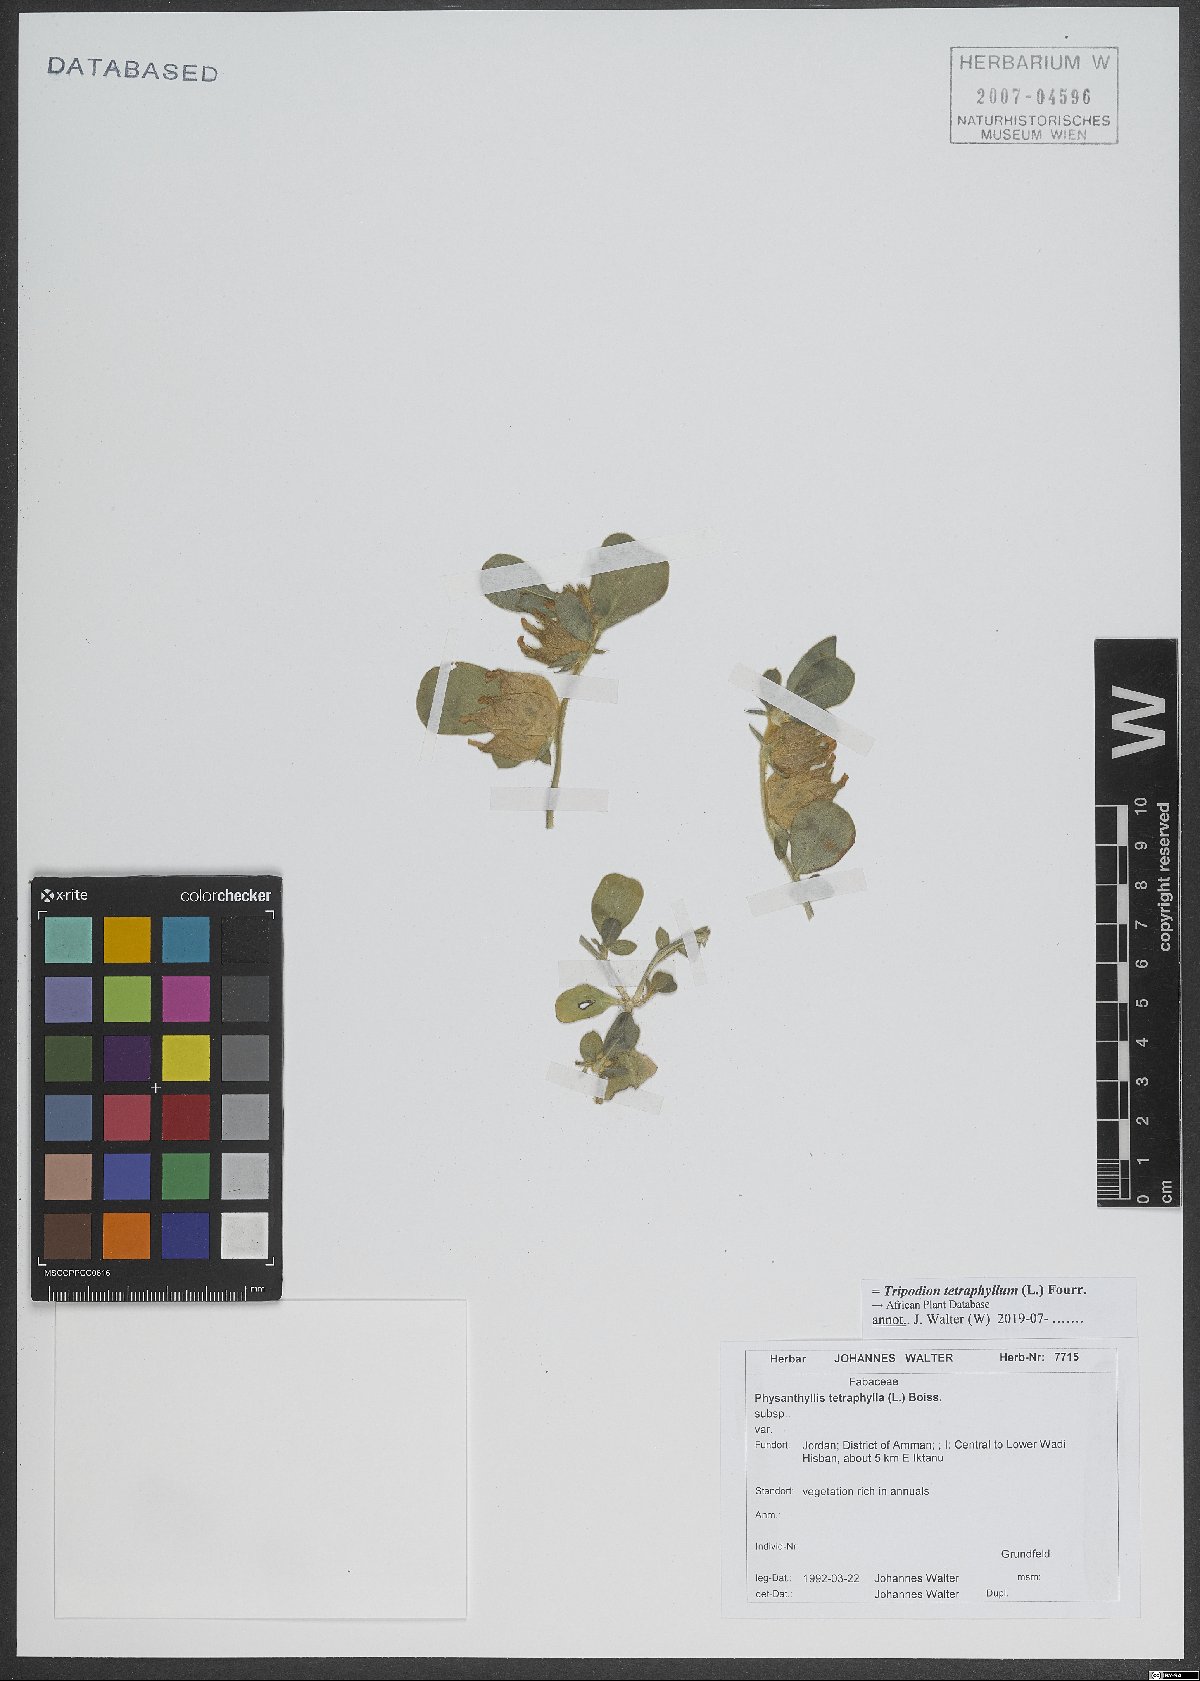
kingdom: Plantae
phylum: Tracheophyta
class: Magnoliopsida
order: Fabales
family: Fabaceae
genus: Tripodion
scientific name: Tripodion tetraphyllum
